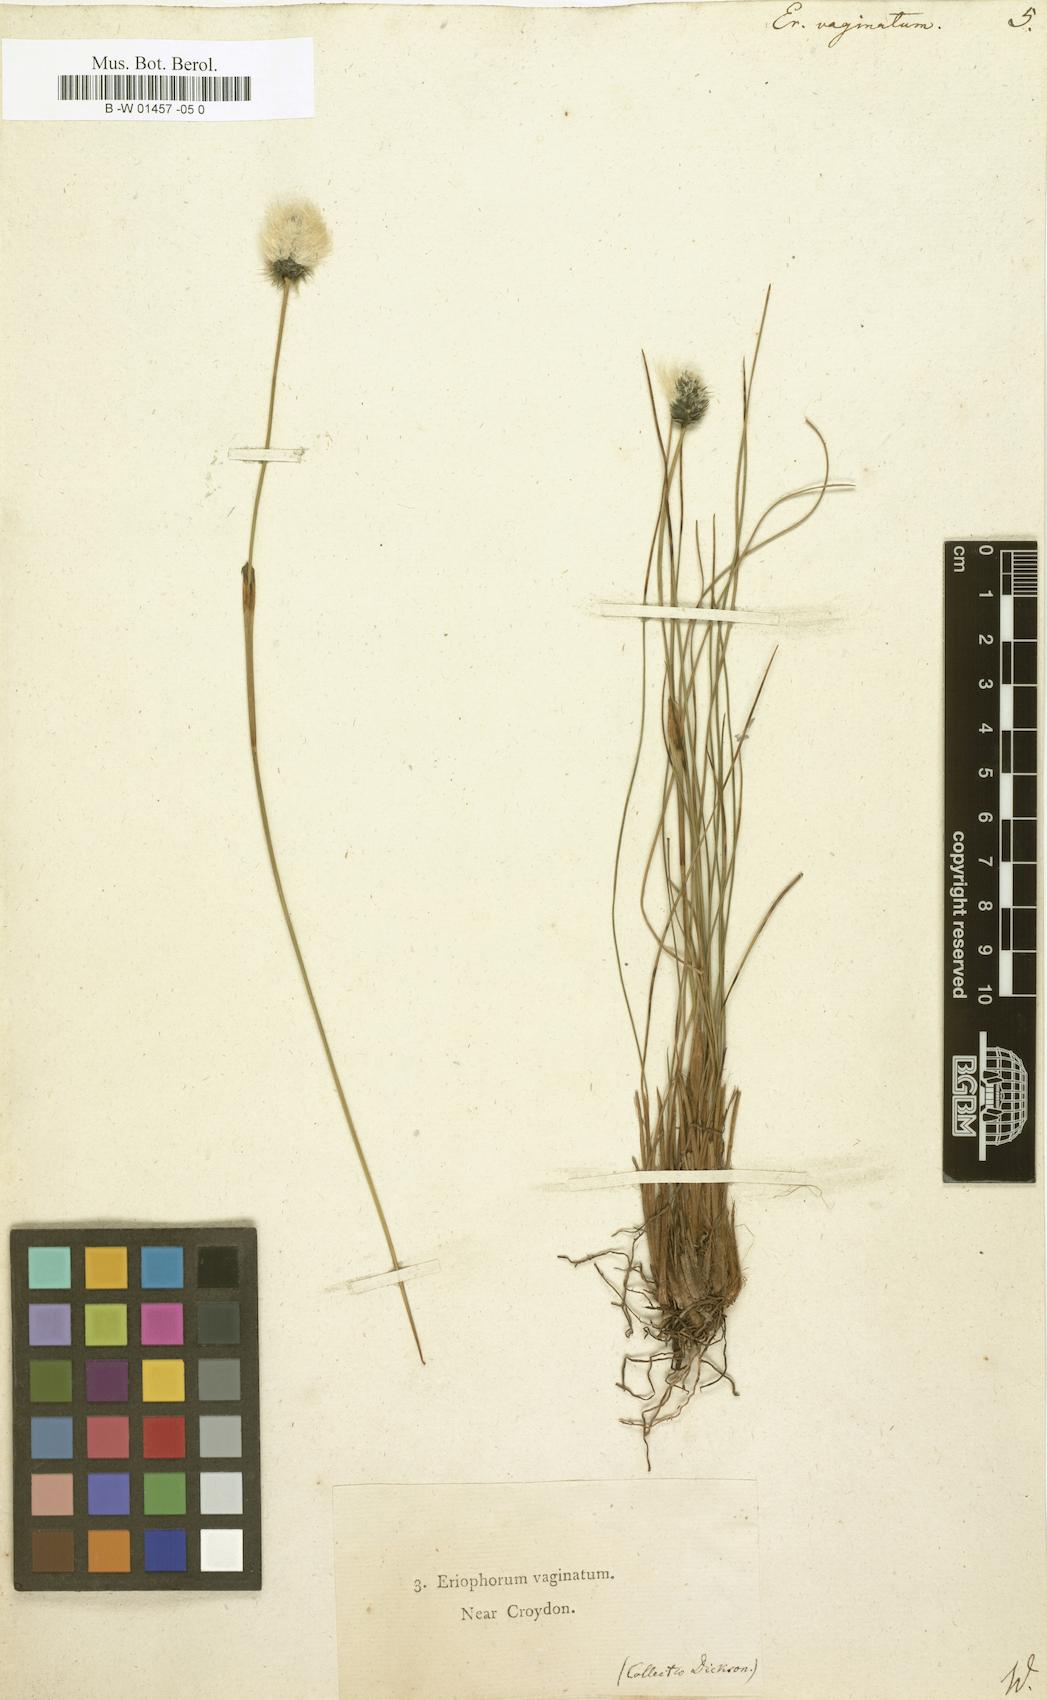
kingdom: Plantae
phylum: Tracheophyta
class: Liliopsida
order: Poales
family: Cyperaceae
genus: Eriophorum
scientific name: Eriophorum vaginatum
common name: Hare's-tail cottongrass
